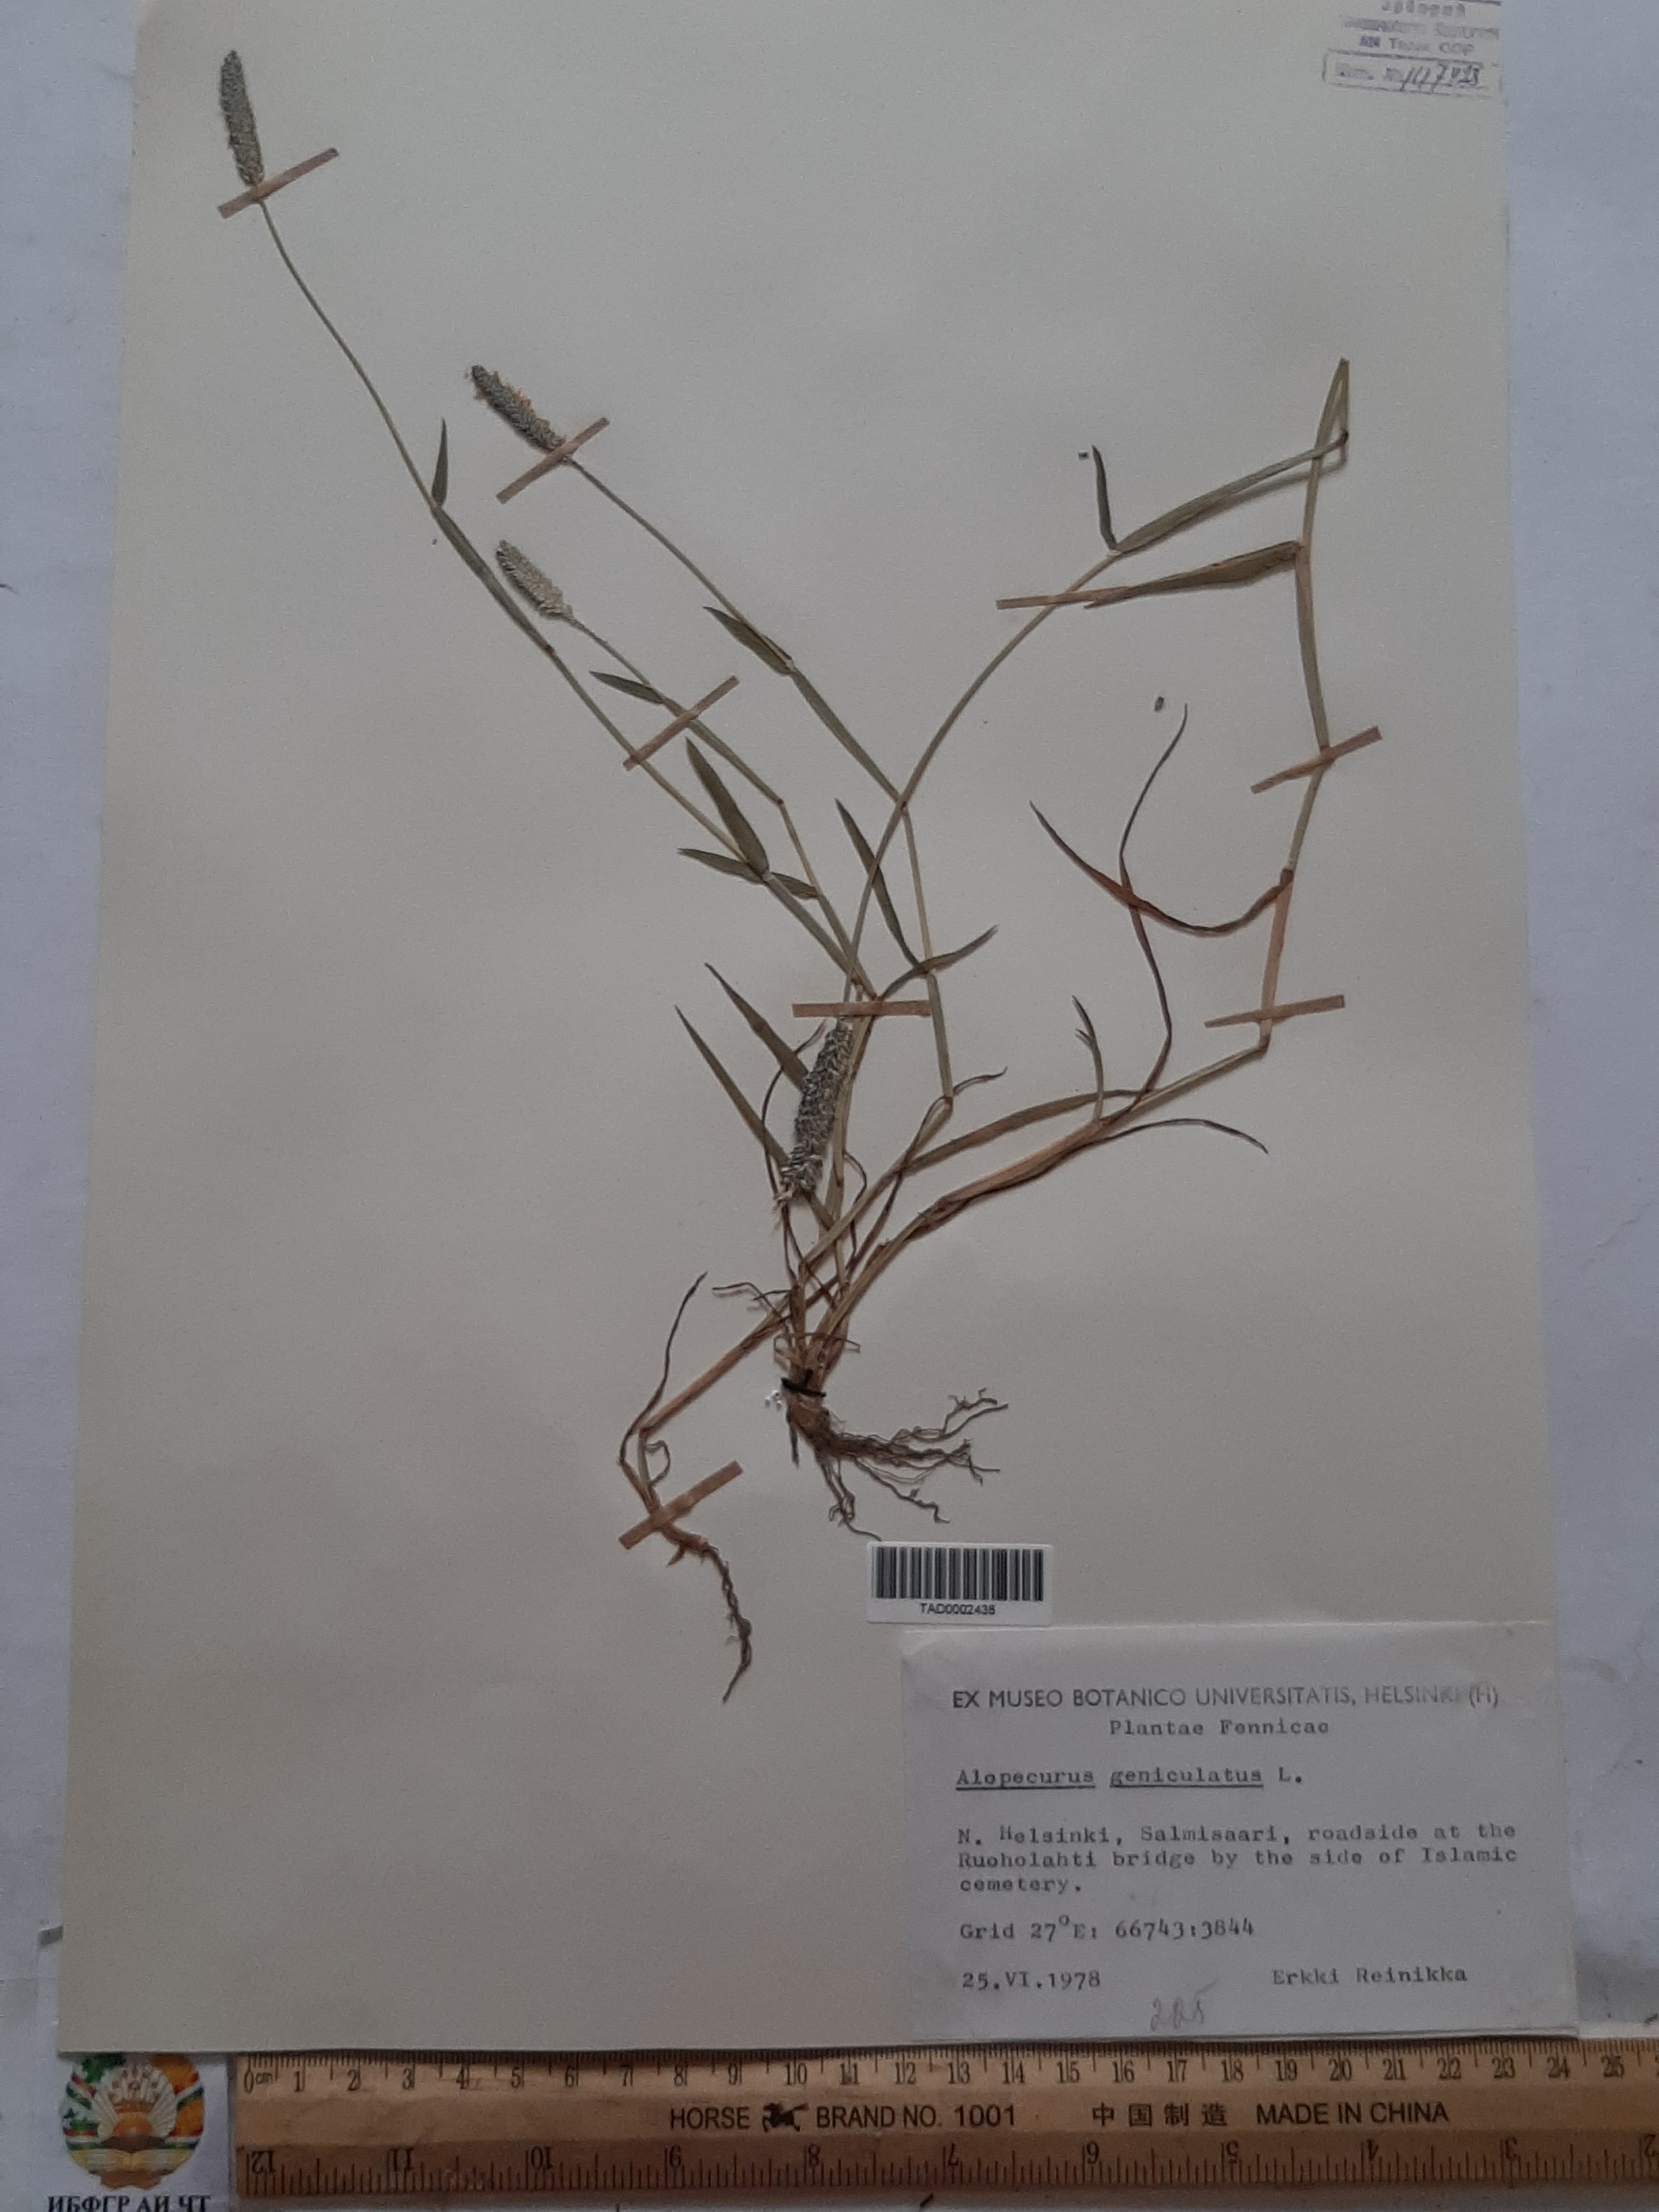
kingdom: Plantae
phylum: Tracheophyta
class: Liliopsida
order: Poales
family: Poaceae
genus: Alopecurus
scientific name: Alopecurus geniculatus
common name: Water foxtail
